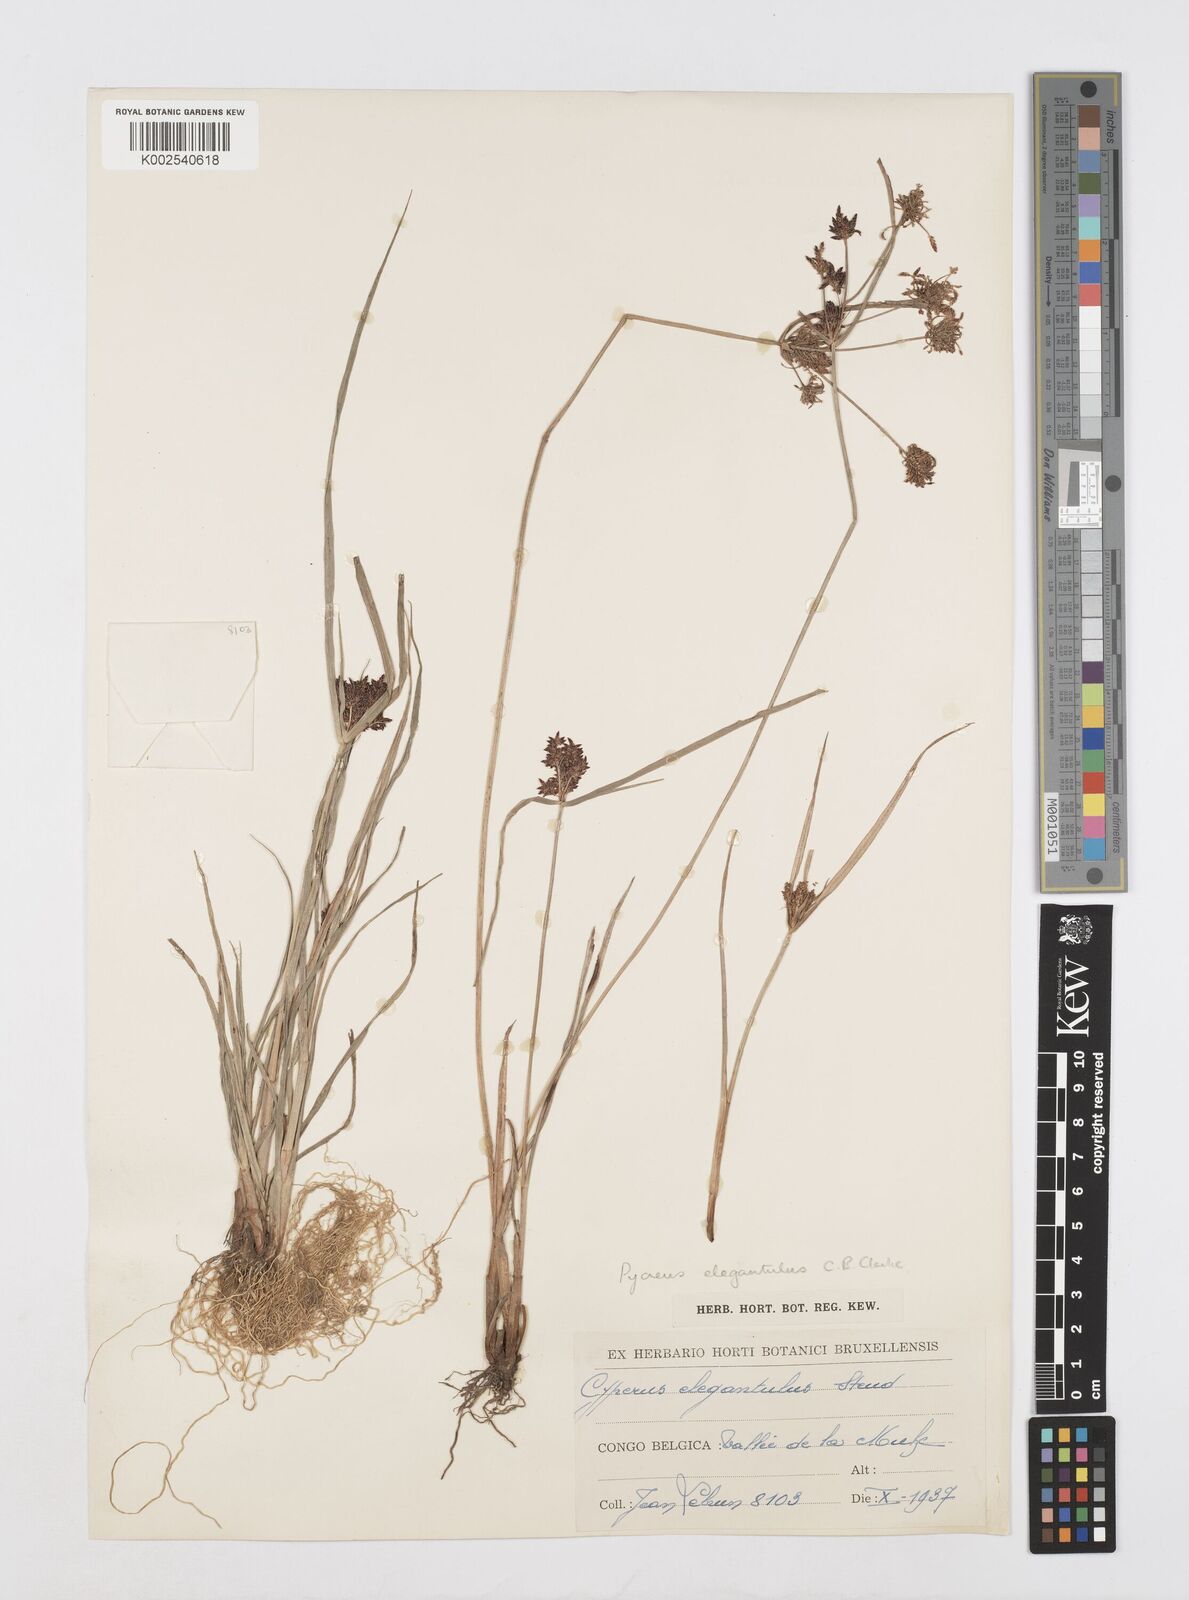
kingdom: Plantae
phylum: Tracheophyta
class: Liliopsida
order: Poales
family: Cyperaceae
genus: Cyperus
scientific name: Cyperus elegantulus
